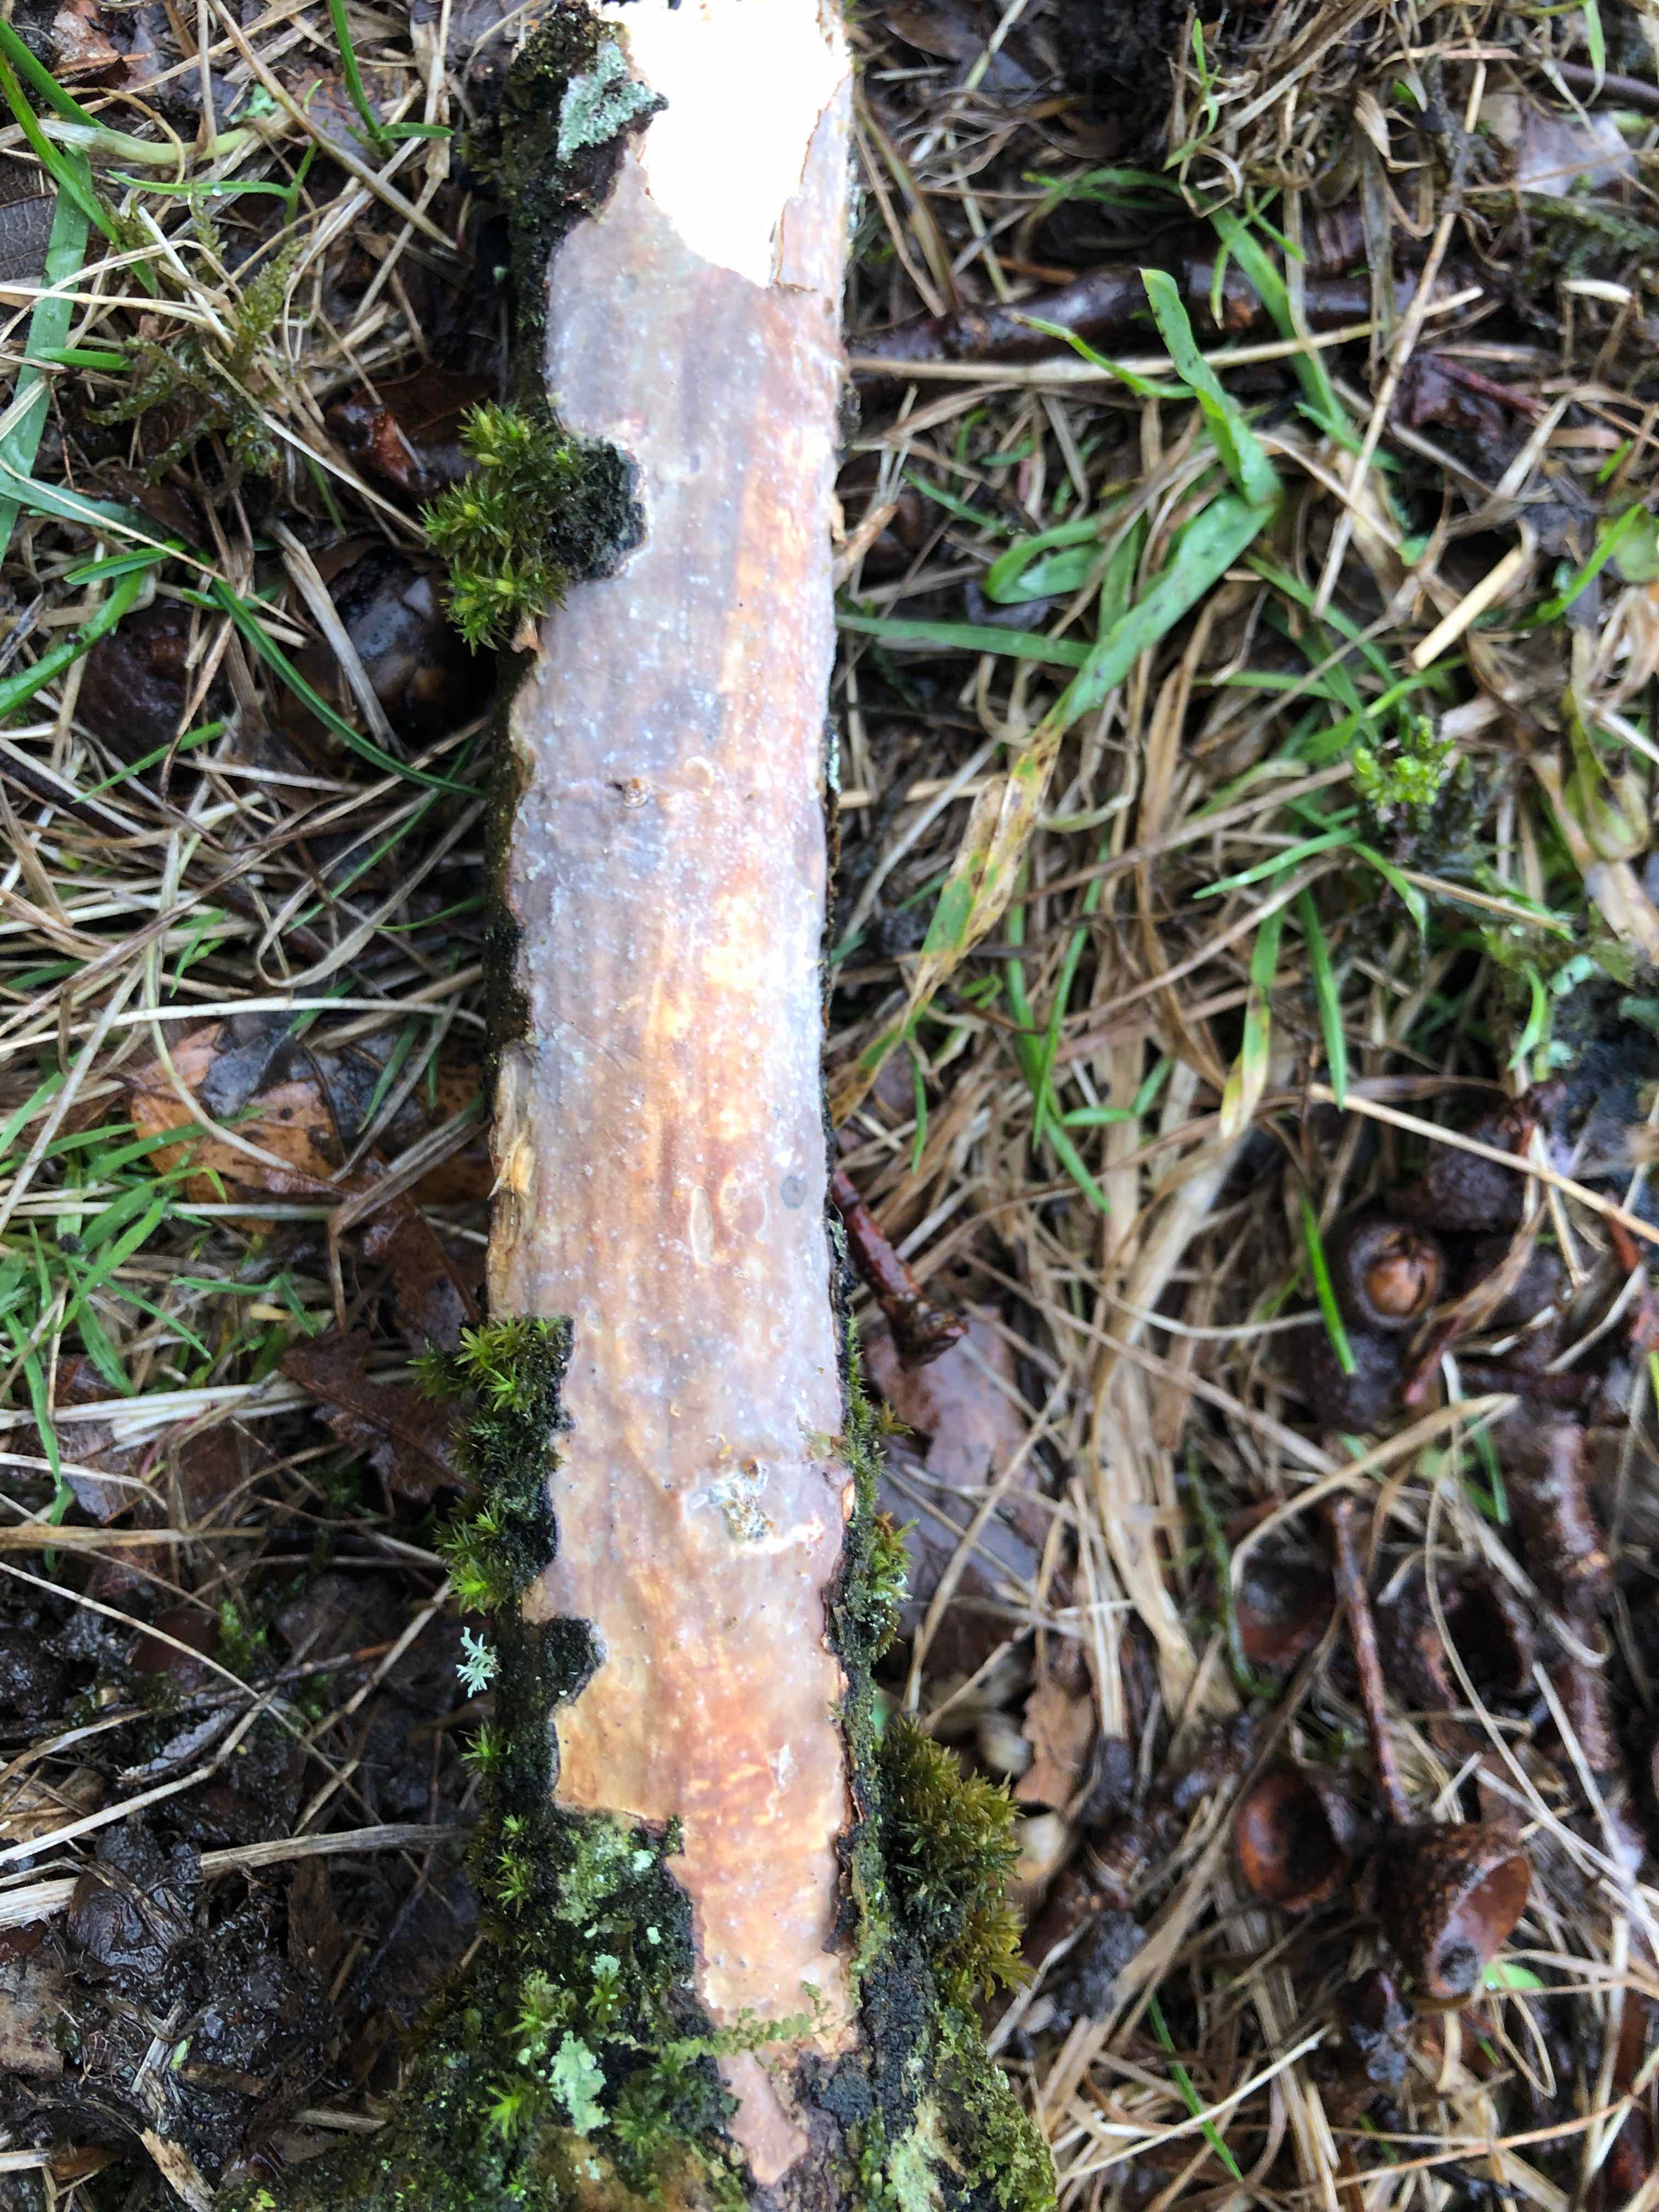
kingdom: Fungi
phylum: Basidiomycota
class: Agaricomycetes
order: Corticiales
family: Vuilleminiaceae
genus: Vuilleminia
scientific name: Vuilleminia comedens
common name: almindelig barksprænger
